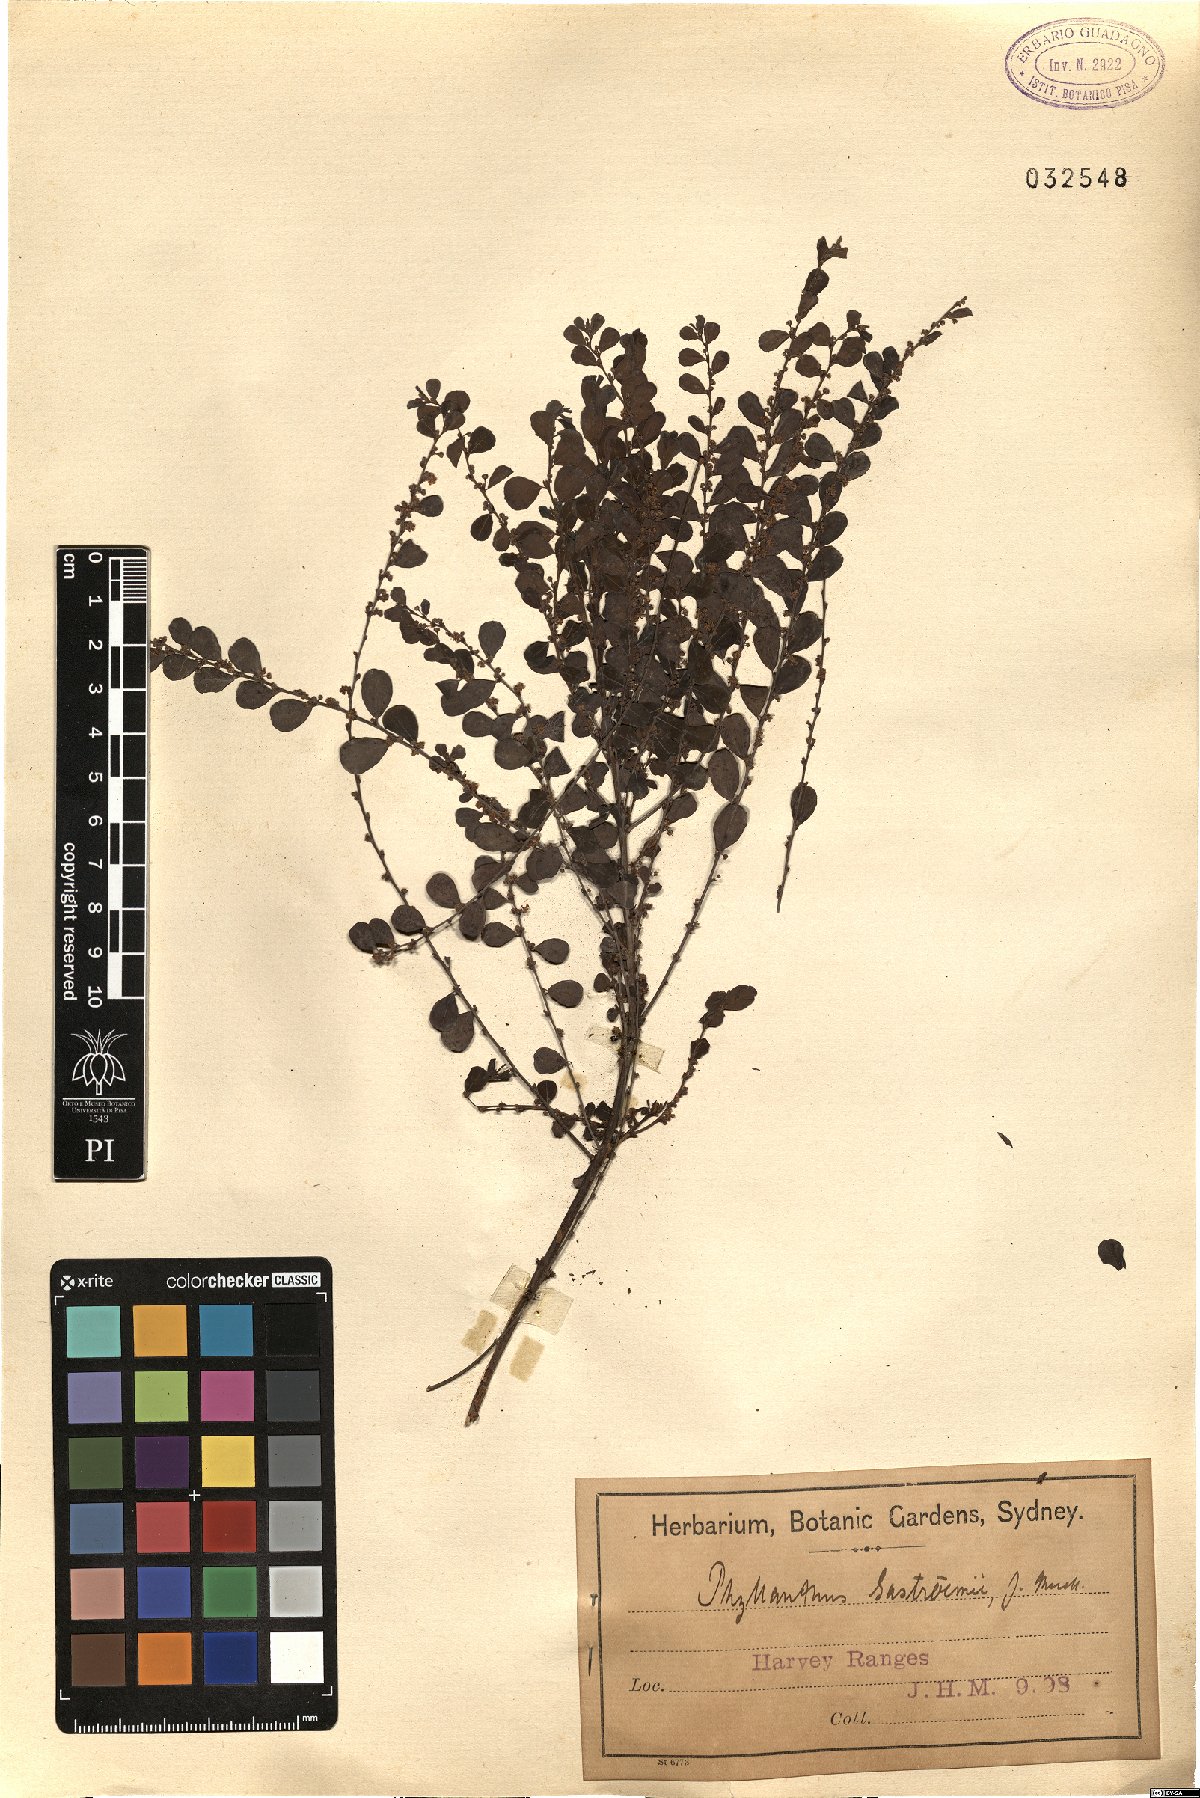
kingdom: Plantae
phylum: Tracheophyta
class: Magnoliopsida
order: Malpighiales
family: Phyllanthaceae
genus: Phyllanthus
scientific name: Phyllanthus gunnii
